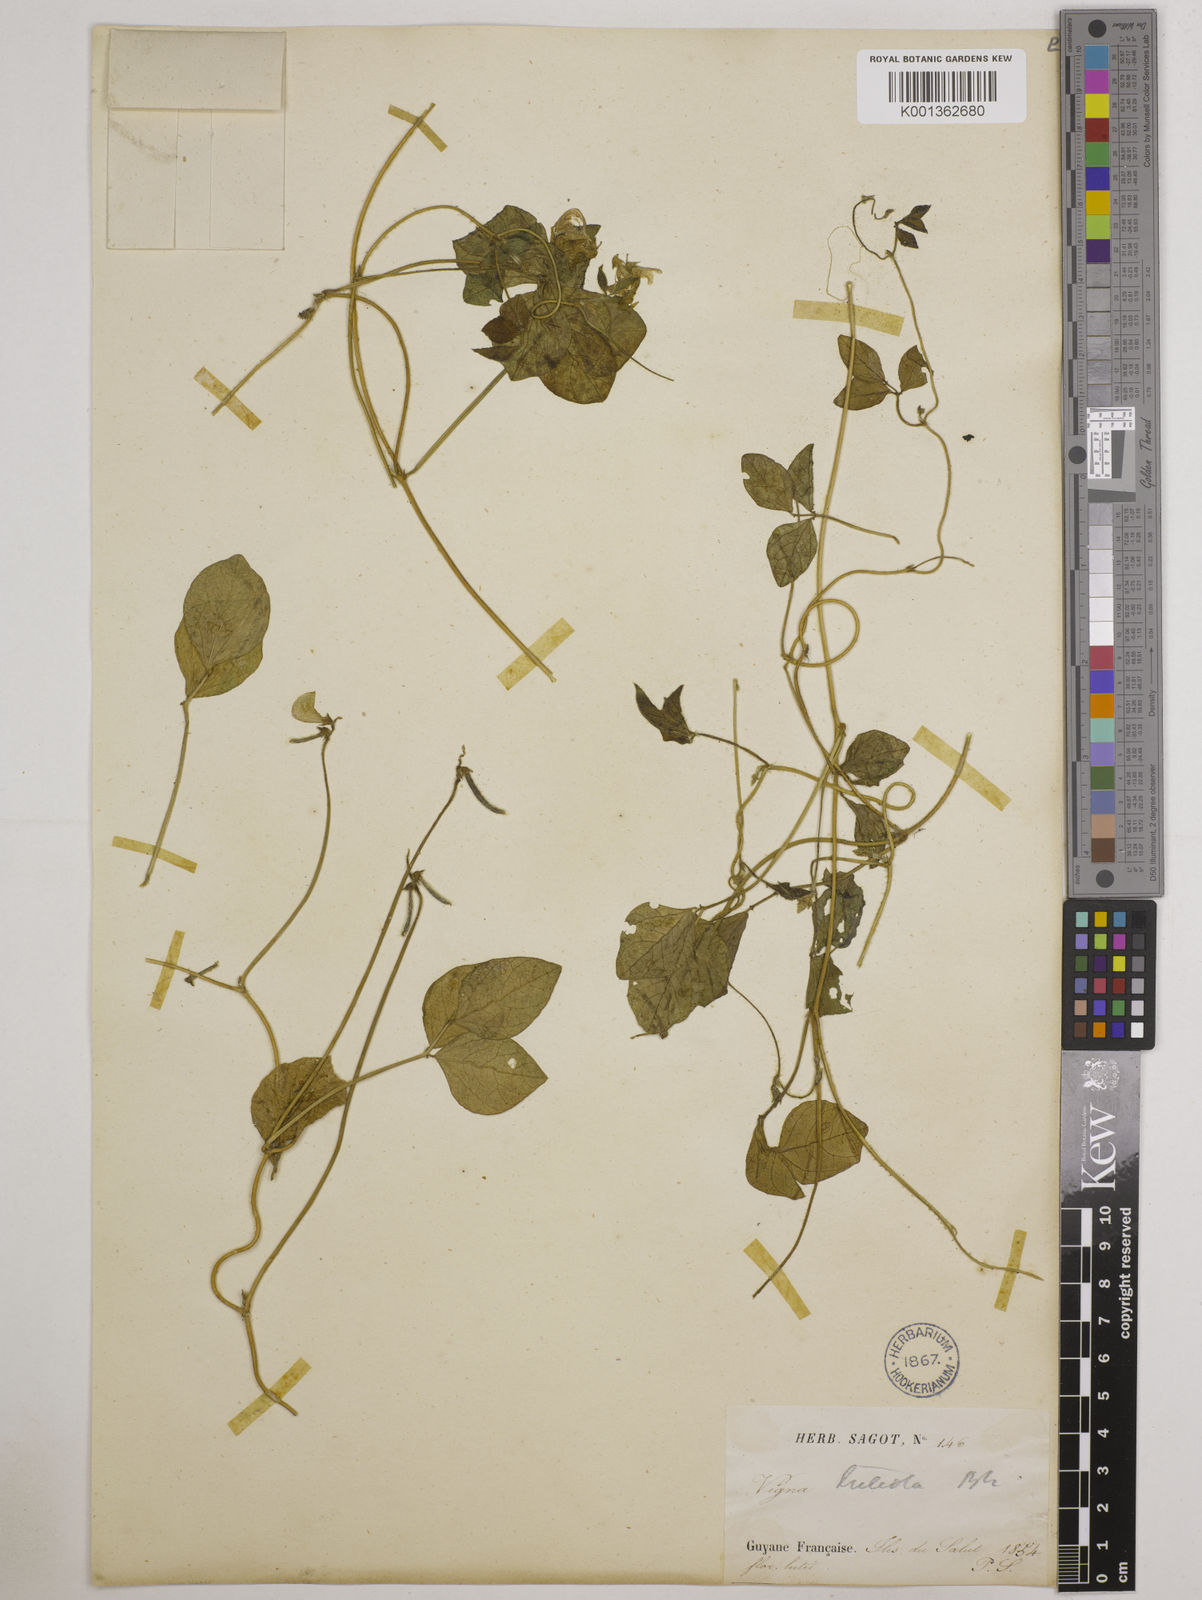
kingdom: Plantae
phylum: Tracheophyta
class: Magnoliopsida
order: Fabales
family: Fabaceae
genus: Vigna
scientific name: Vigna luteola
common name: Hairypod cowpea
